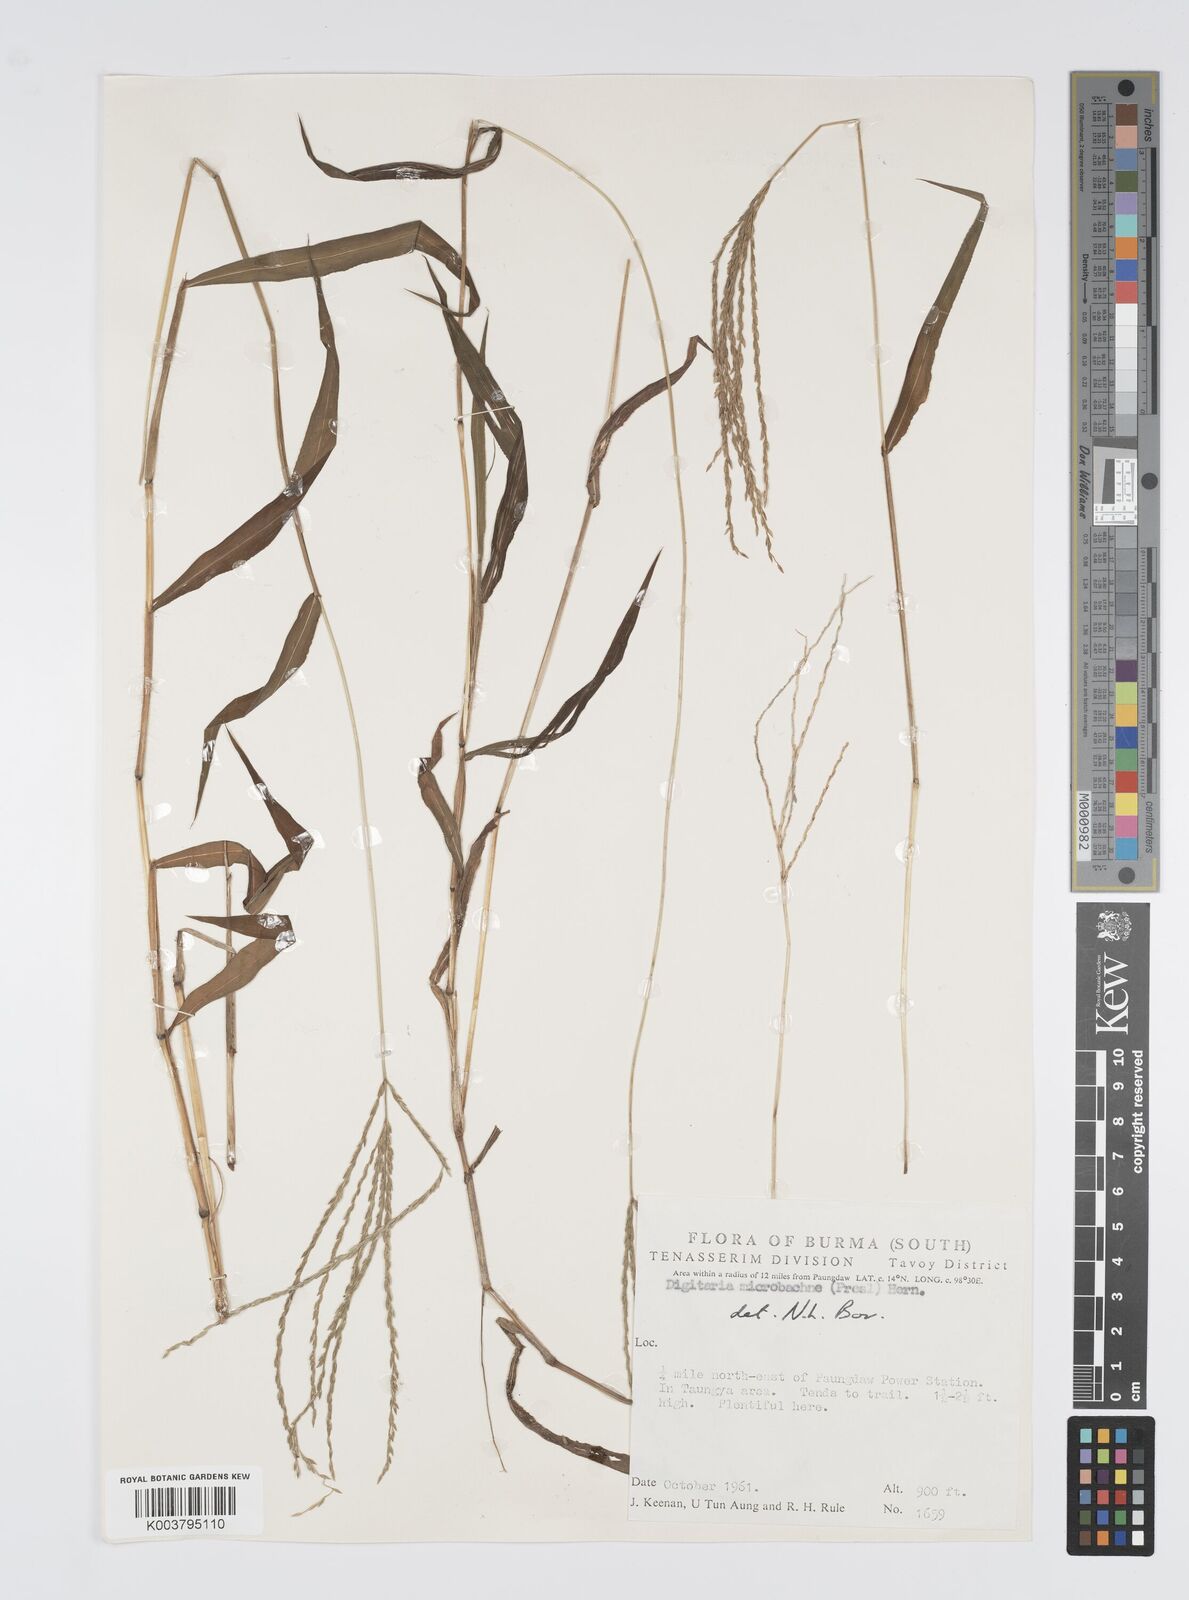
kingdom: Plantae
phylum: Tracheophyta
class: Liliopsida
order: Poales
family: Poaceae
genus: Digitaria
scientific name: Digitaria setigera
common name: East indian crabgrass
